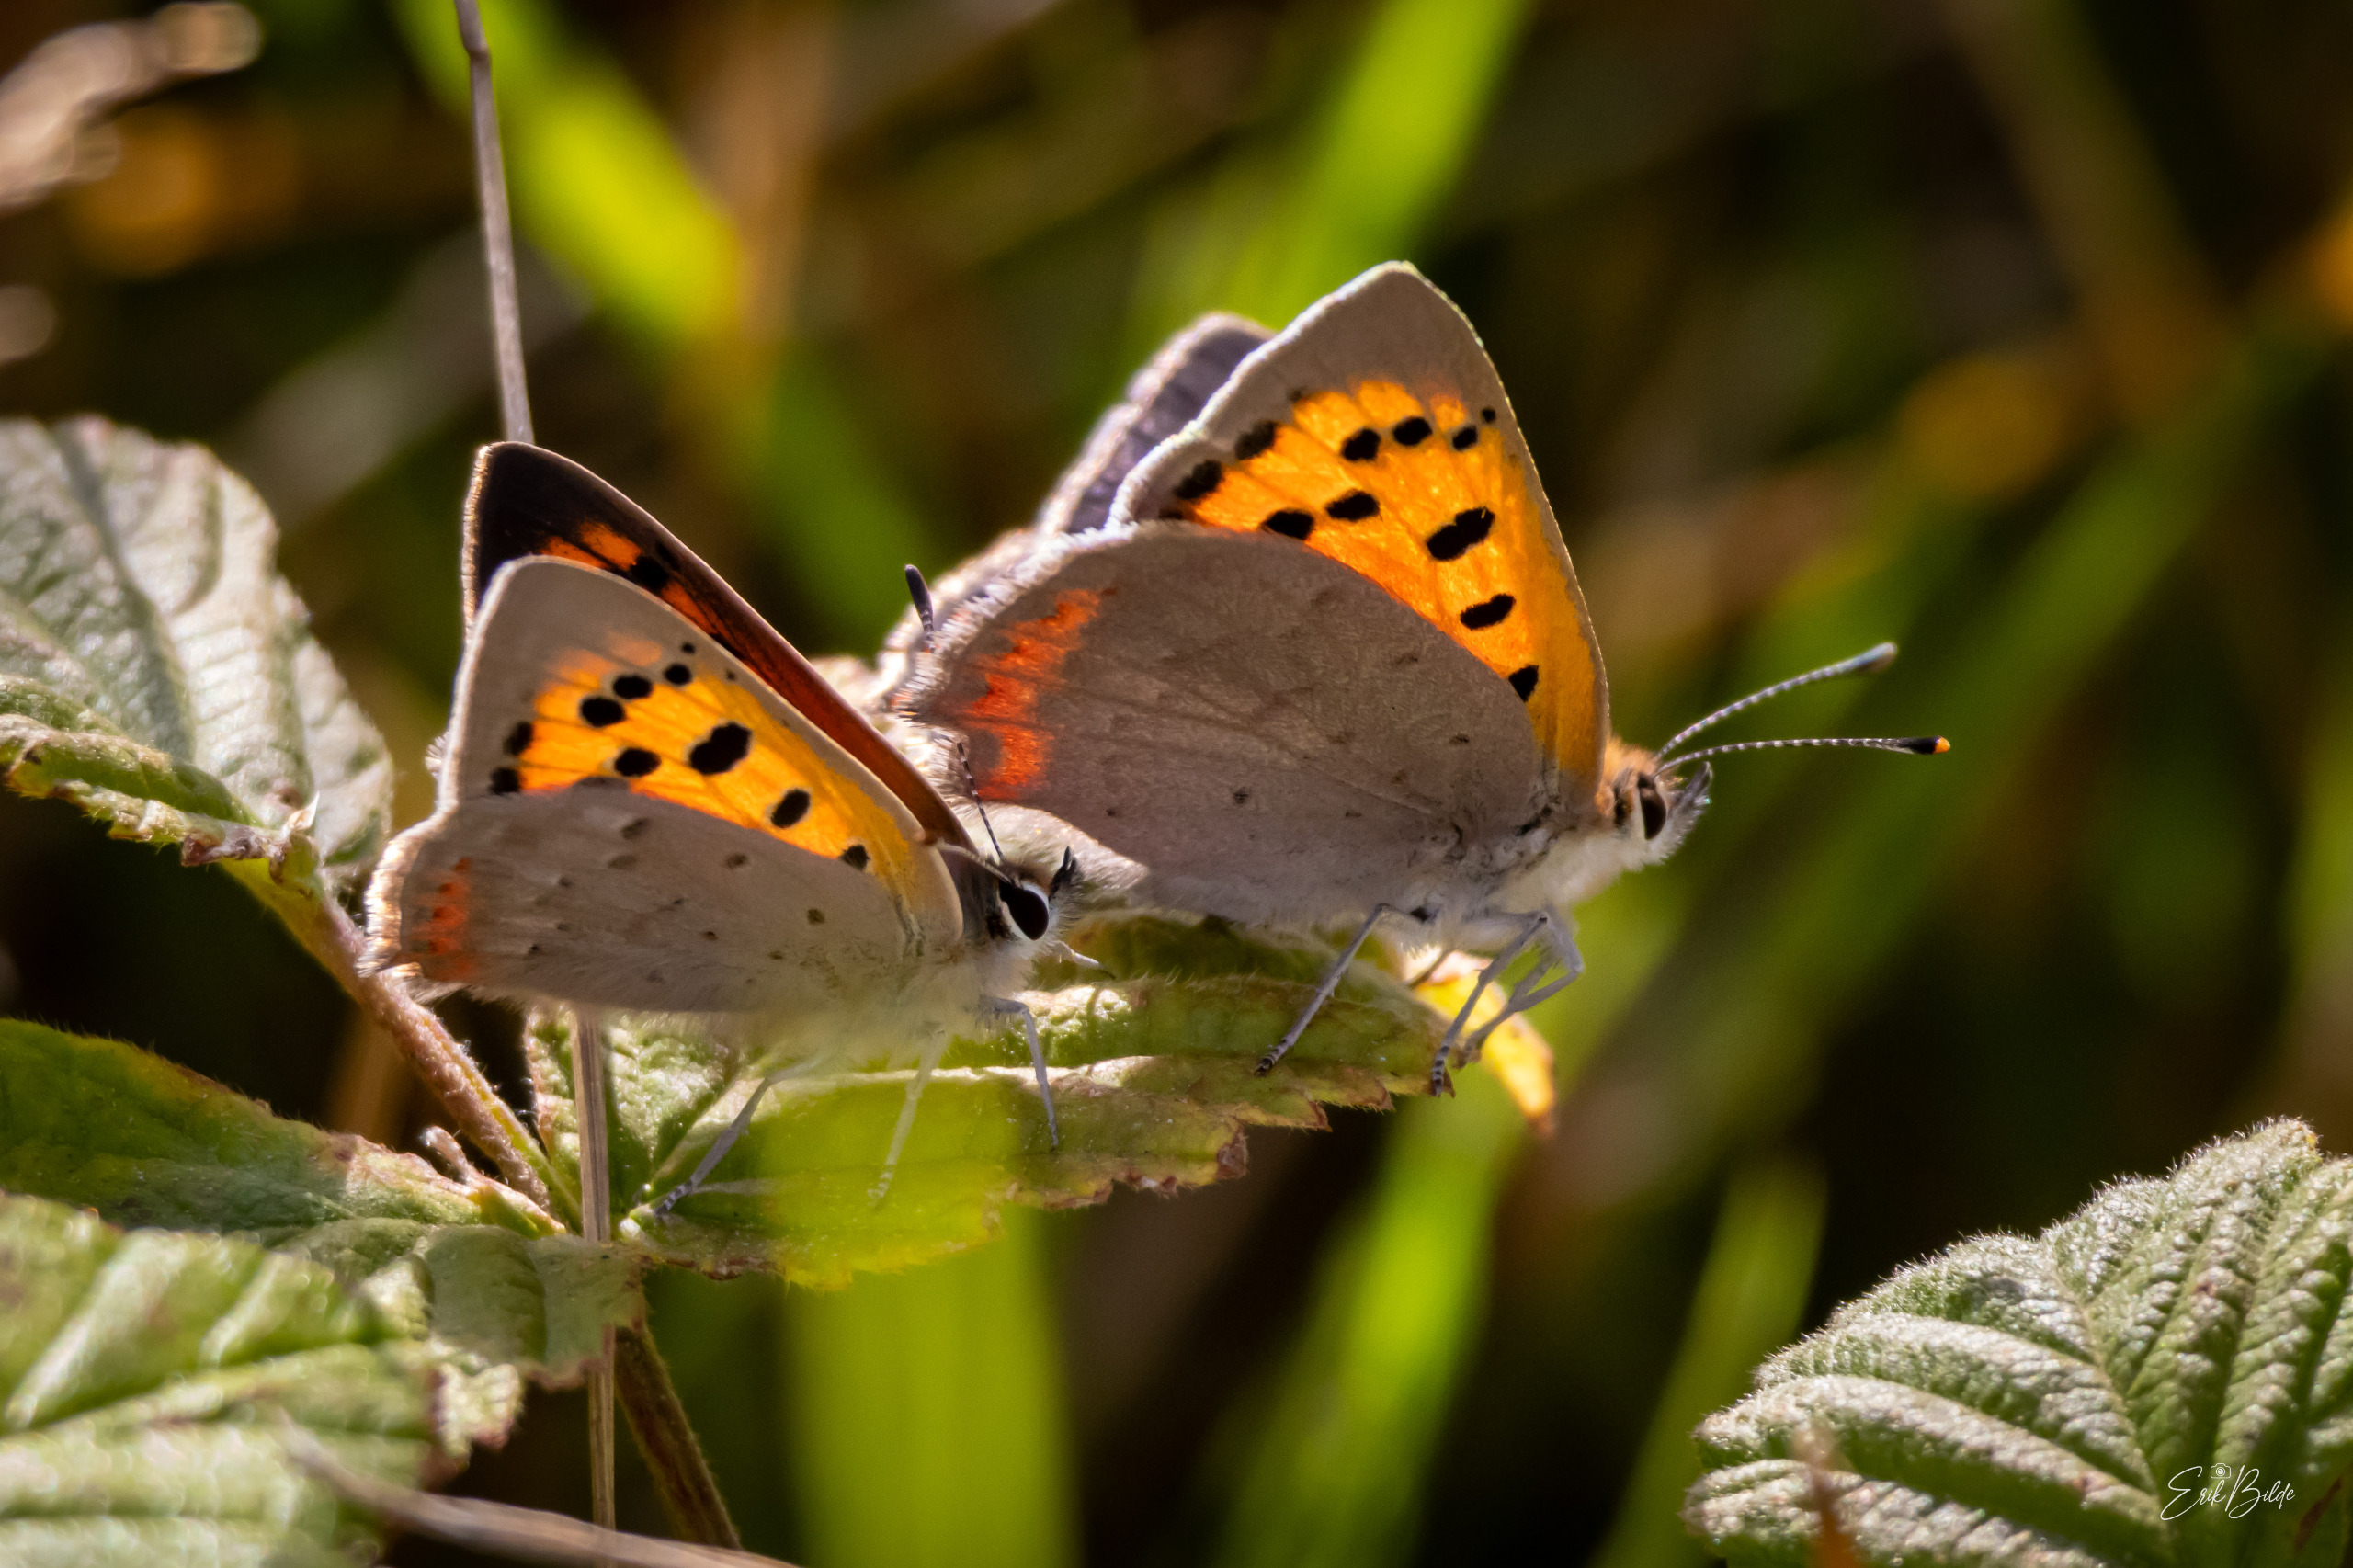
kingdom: Animalia
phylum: Arthropoda
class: Insecta
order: Lepidoptera
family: Lycaenidae
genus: Lycaena
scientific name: Lycaena phlaeas
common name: Lille ildfugl
